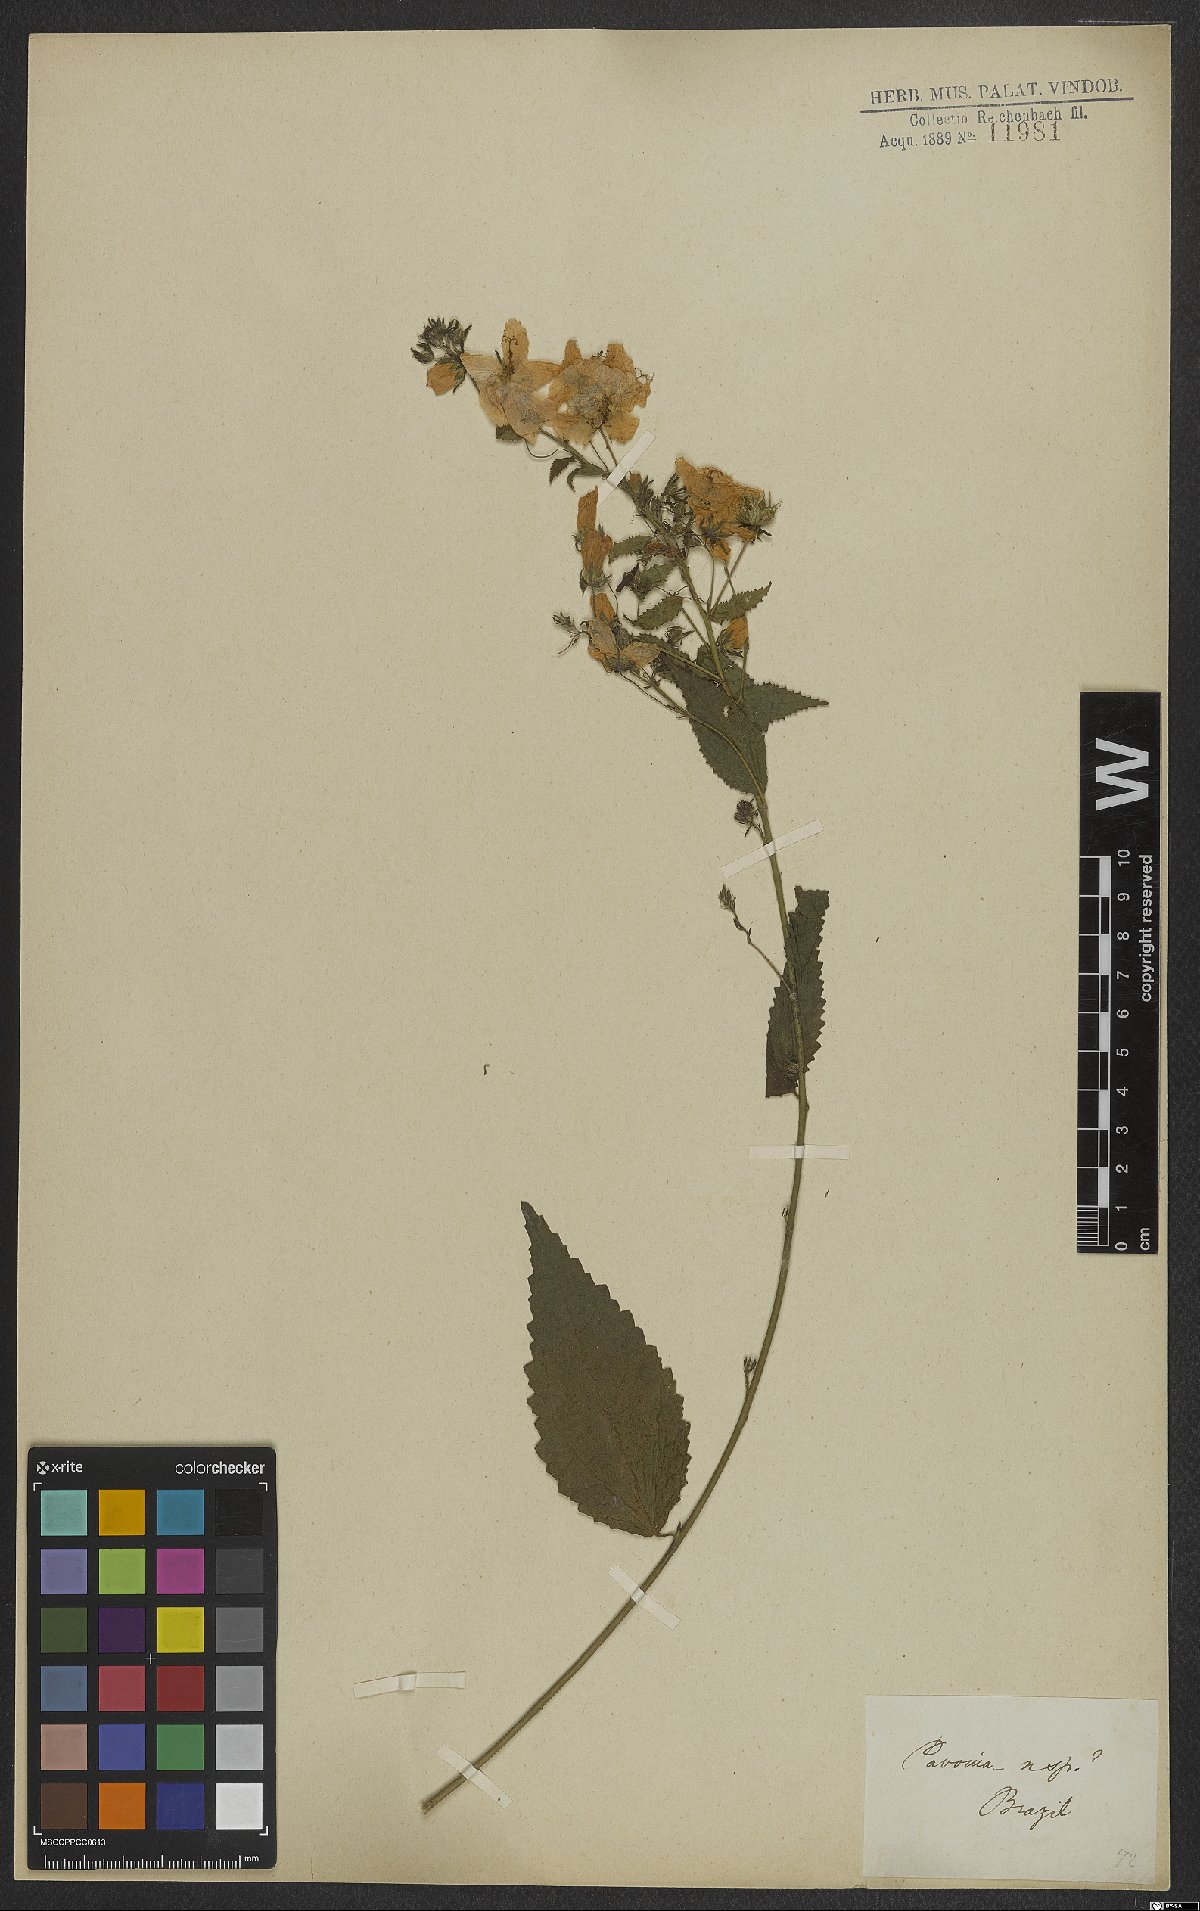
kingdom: Plantae
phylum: Tracheophyta
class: Magnoliopsida
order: Malvales
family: Malvaceae
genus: Pavonia
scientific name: Pavonia
